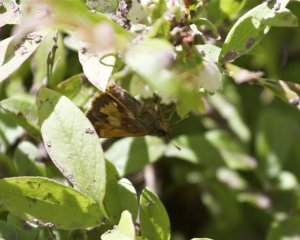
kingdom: Animalia
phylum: Arthropoda
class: Insecta
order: Lepidoptera
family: Hesperiidae
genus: Lon
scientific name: Lon hobomok
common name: Hobomok Skipper
